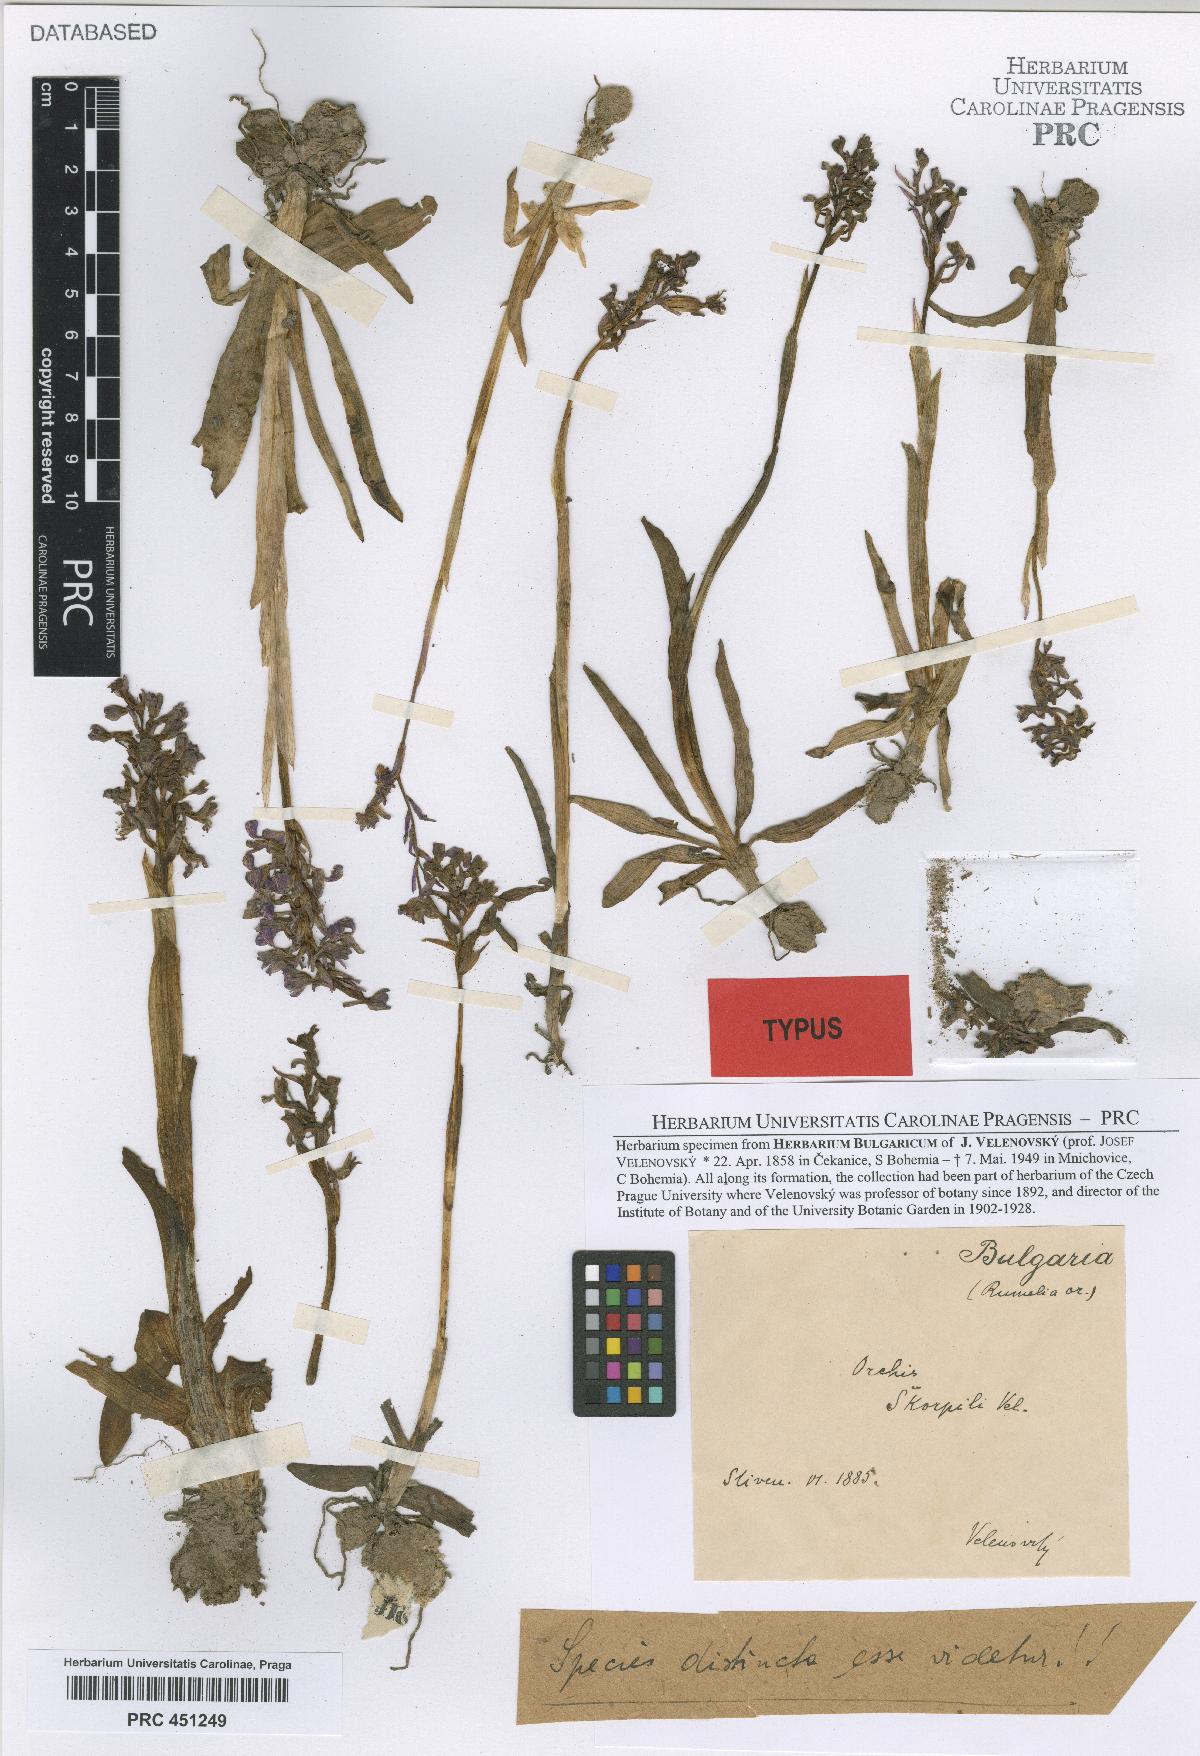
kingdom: Plantae
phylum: Tracheophyta
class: Liliopsida
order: Asparagales
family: Orchidaceae
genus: Anacamptis
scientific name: Anacamptis morio
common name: Green-winged orchid
